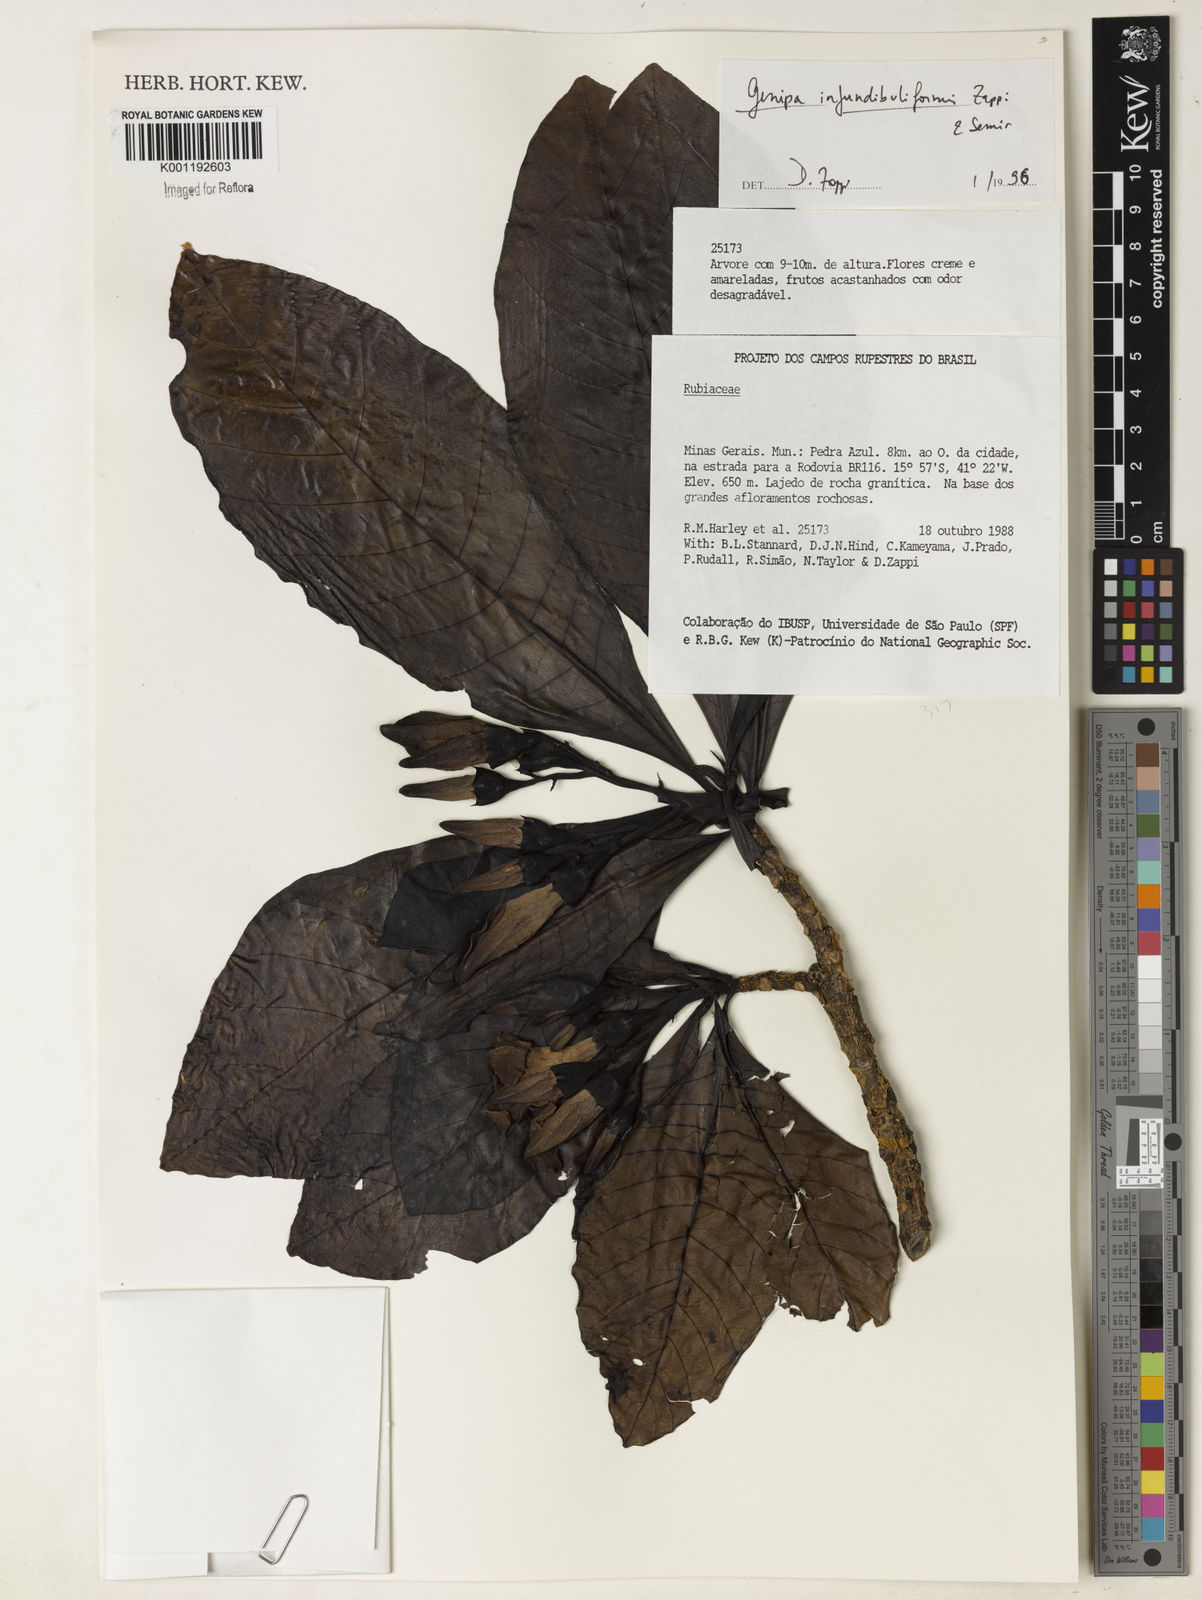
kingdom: Plantae
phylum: Tracheophyta
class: Magnoliopsida
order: Gentianales
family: Rubiaceae
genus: Genipa
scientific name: Genipa infundibuliformis
